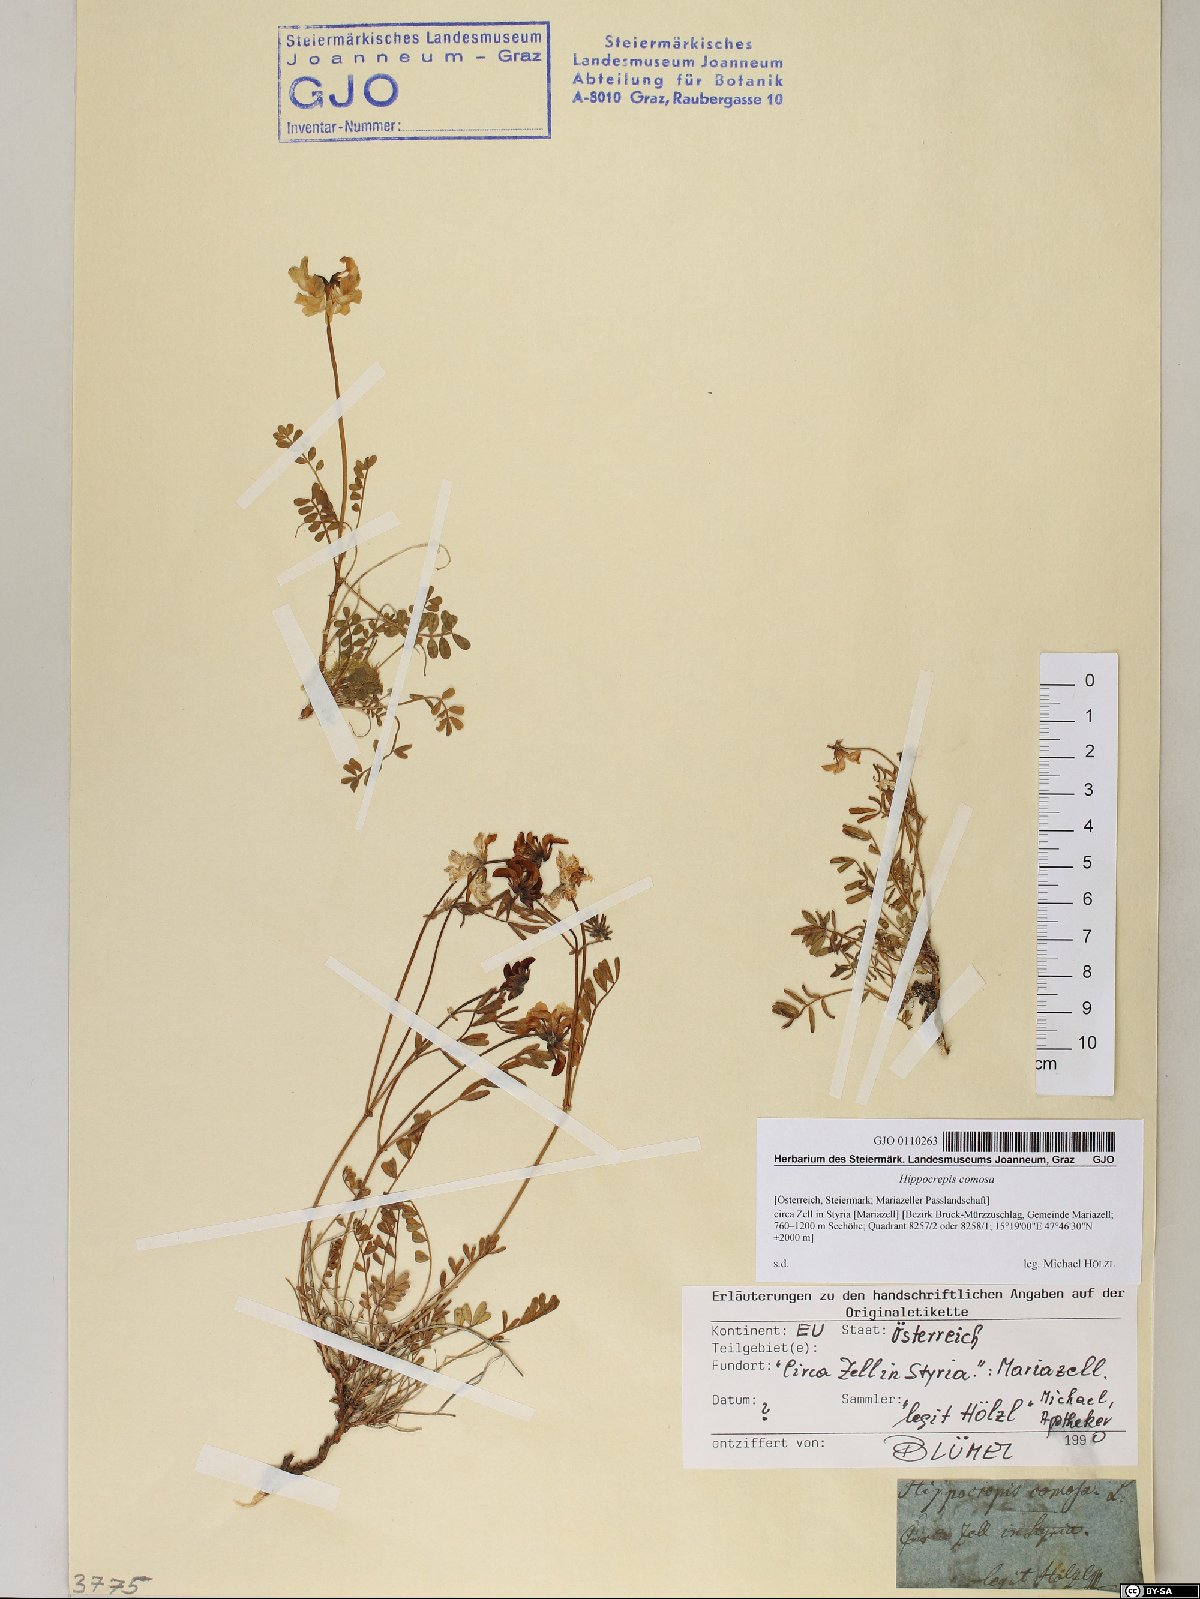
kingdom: Plantae
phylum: Tracheophyta
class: Magnoliopsida
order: Fabales
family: Fabaceae
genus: Hippocrepis
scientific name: Hippocrepis comosa
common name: Horseshoe vetch
